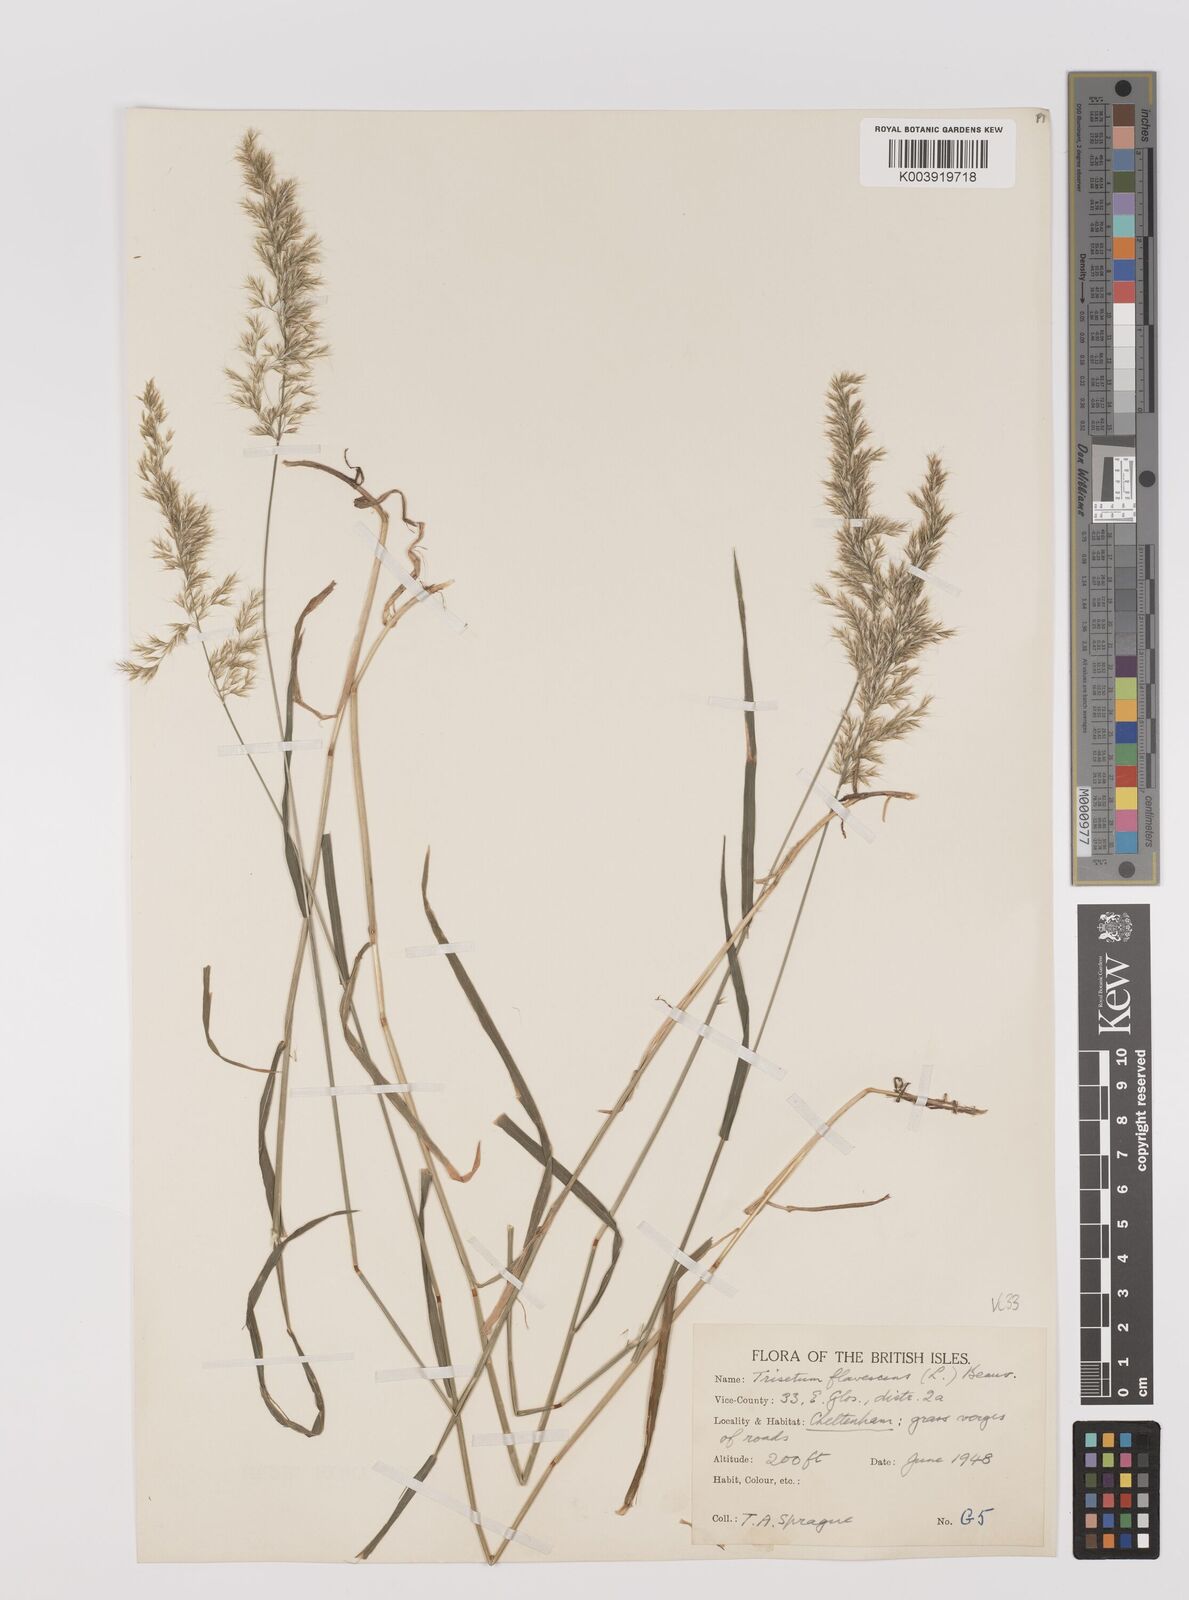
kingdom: Plantae
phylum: Tracheophyta
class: Liliopsida
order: Poales
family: Poaceae
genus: Trisetum
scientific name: Trisetum flavescens
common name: Yellow oat-grass
